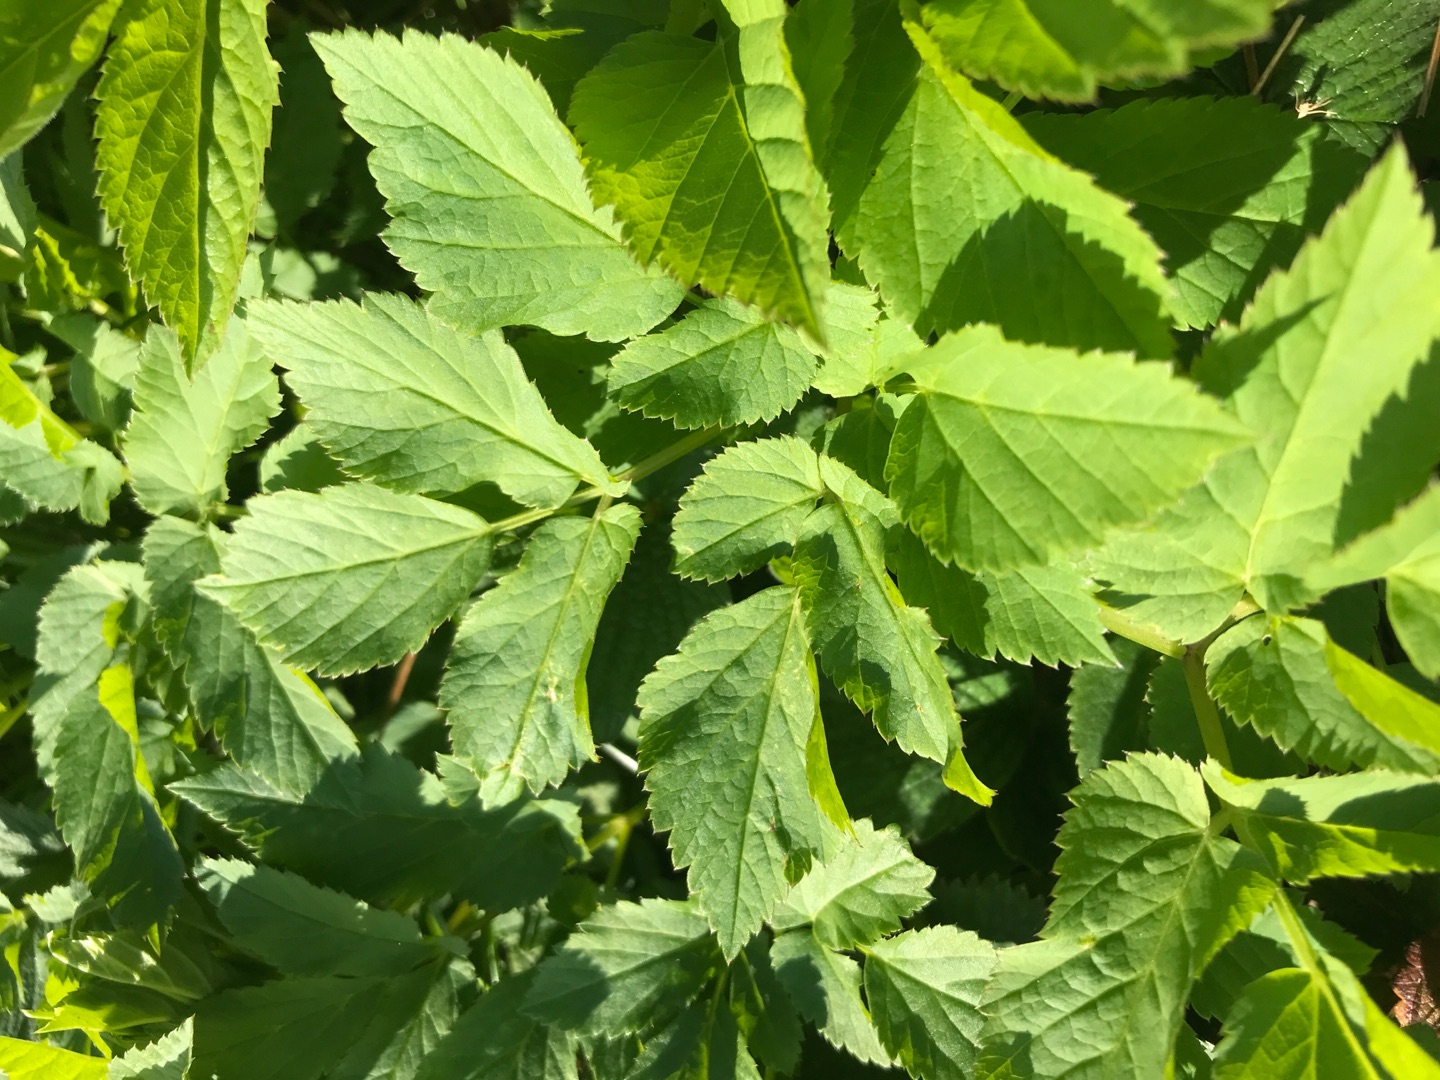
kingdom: Plantae
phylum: Tracheophyta
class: Magnoliopsida
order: Apiales
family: Apiaceae
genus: Aegopodium
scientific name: Aegopodium podagraria
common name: Skvalderkål
